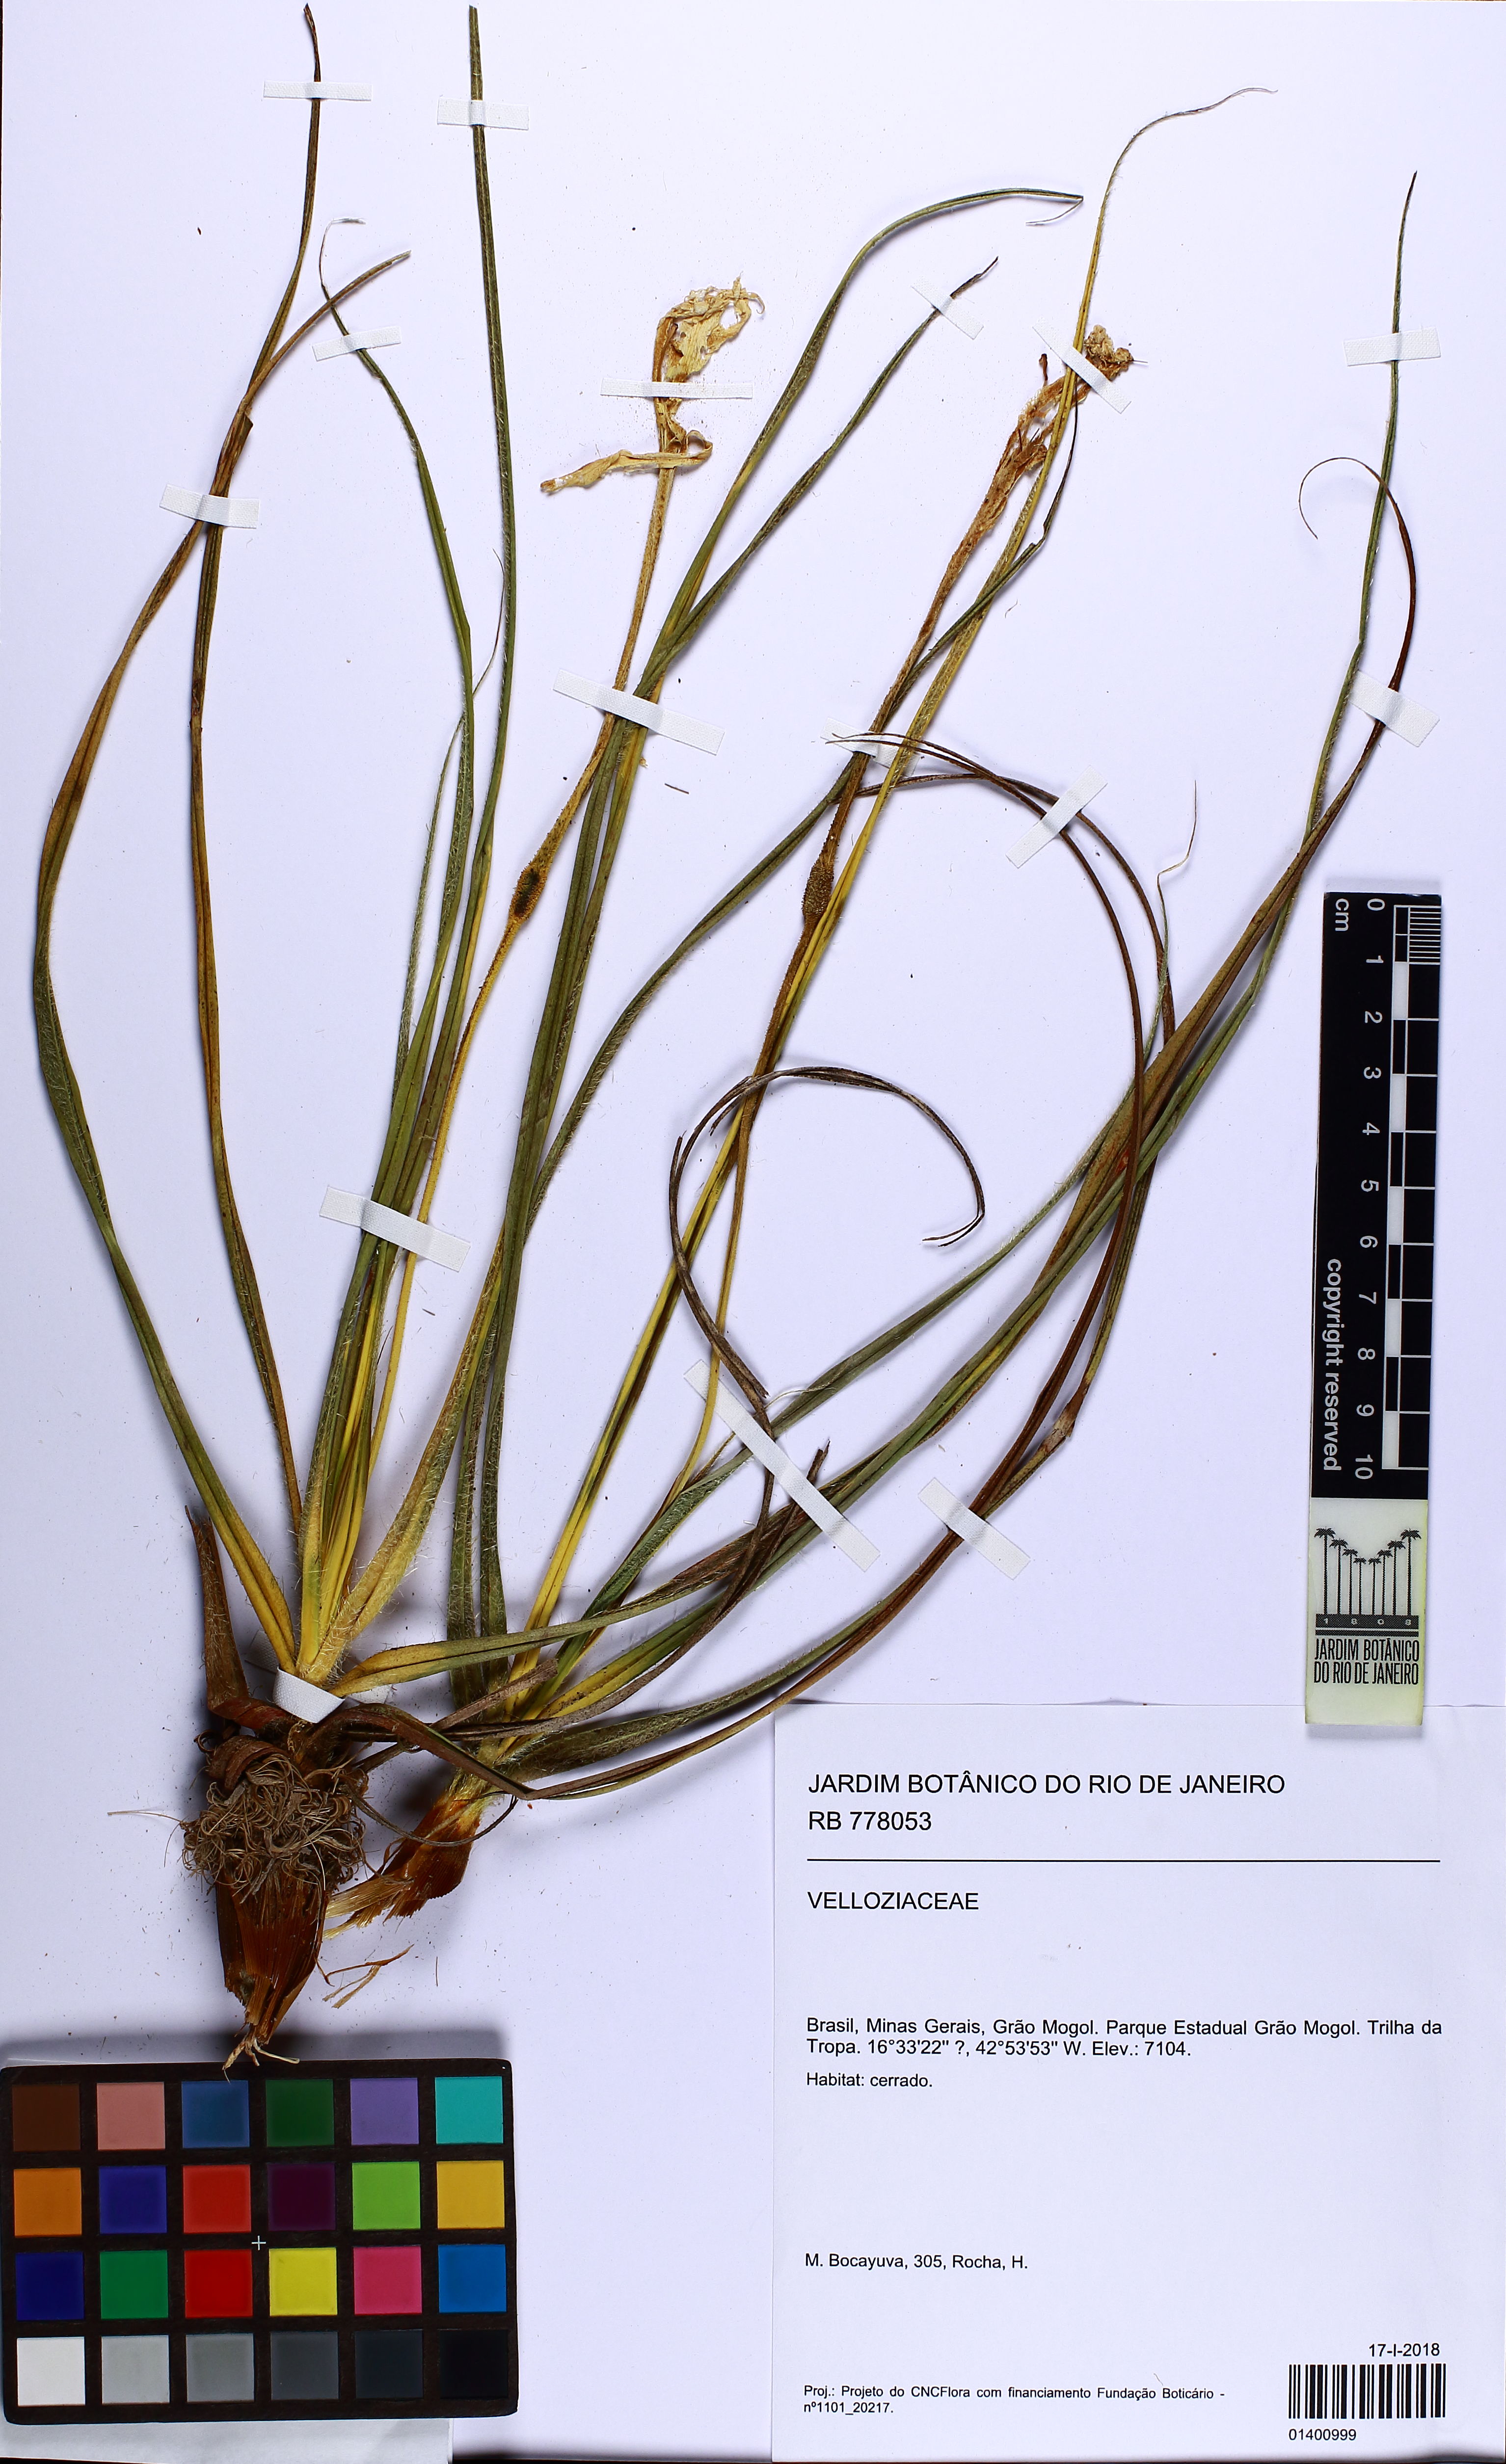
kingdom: Plantae
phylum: Tracheophyta
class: Liliopsida
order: Pandanales
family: Velloziaceae
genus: Vellozia
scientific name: Vellozia hirsuta
